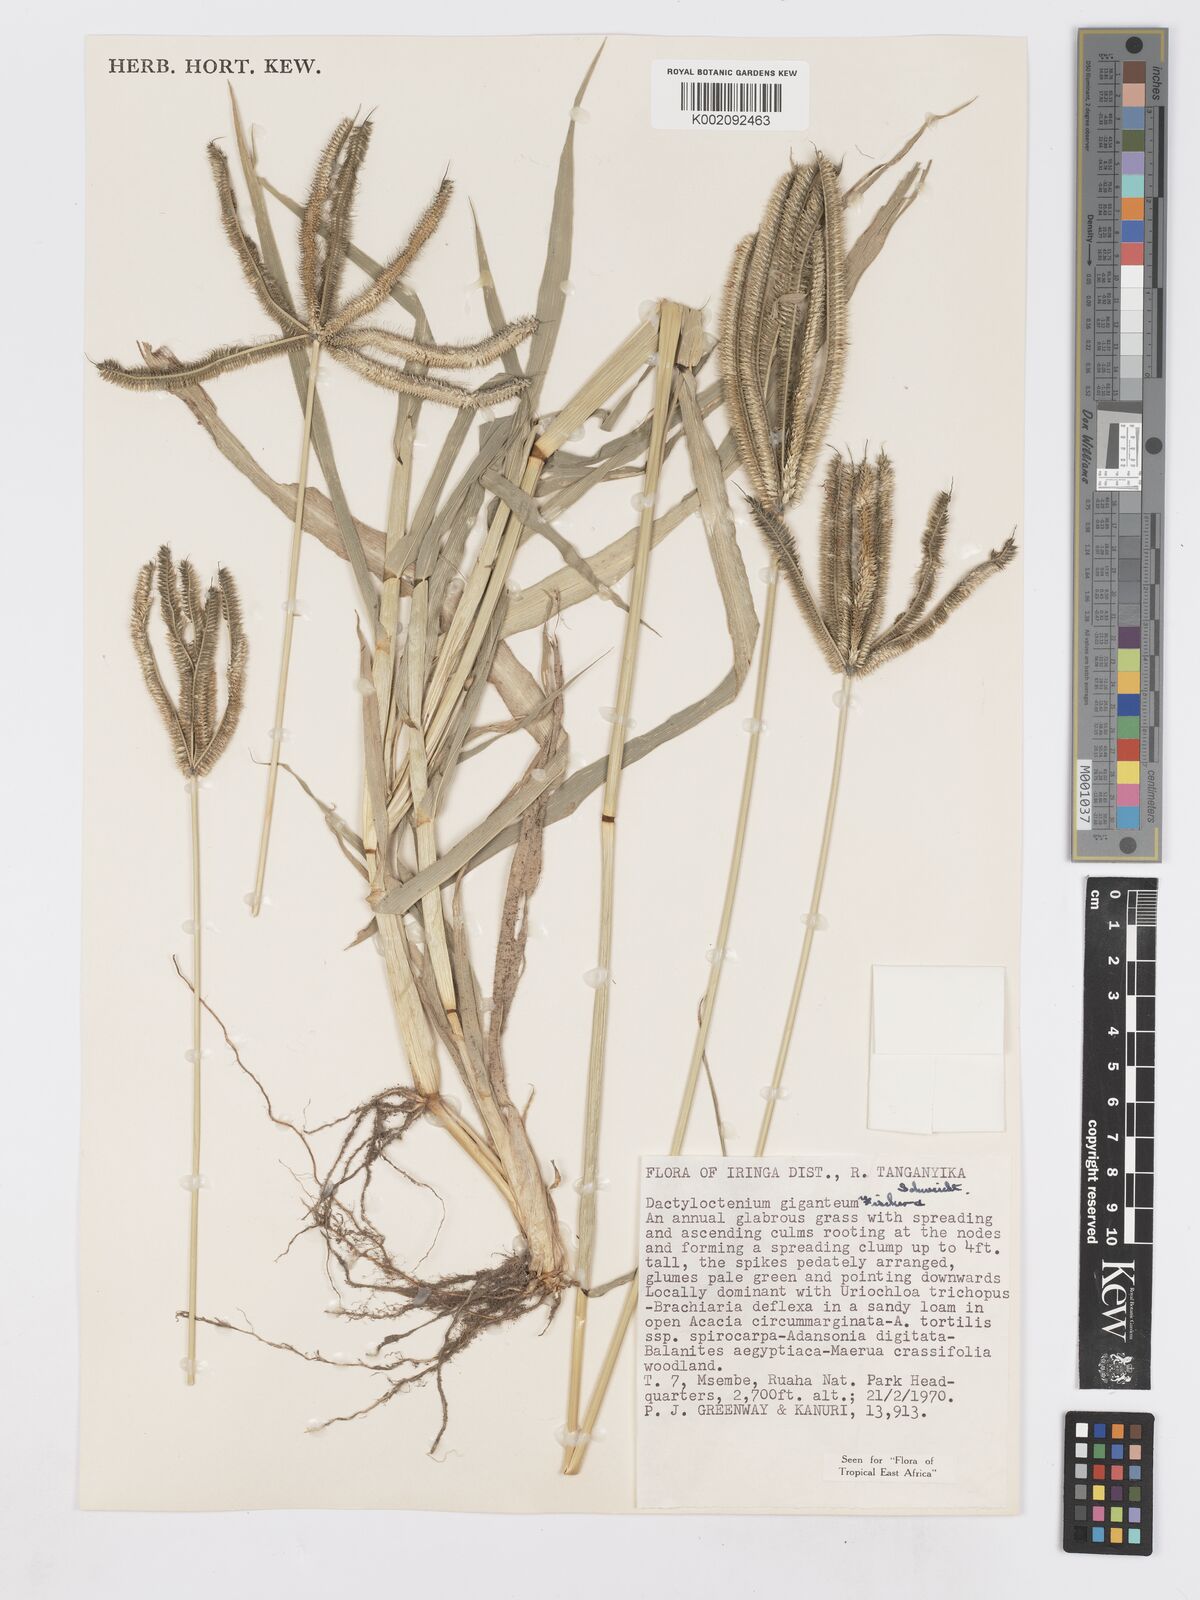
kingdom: Plantae
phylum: Tracheophyta
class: Liliopsida
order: Poales
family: Poaceae
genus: Dactyloctenium
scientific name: Dactyloctenium giganteum
